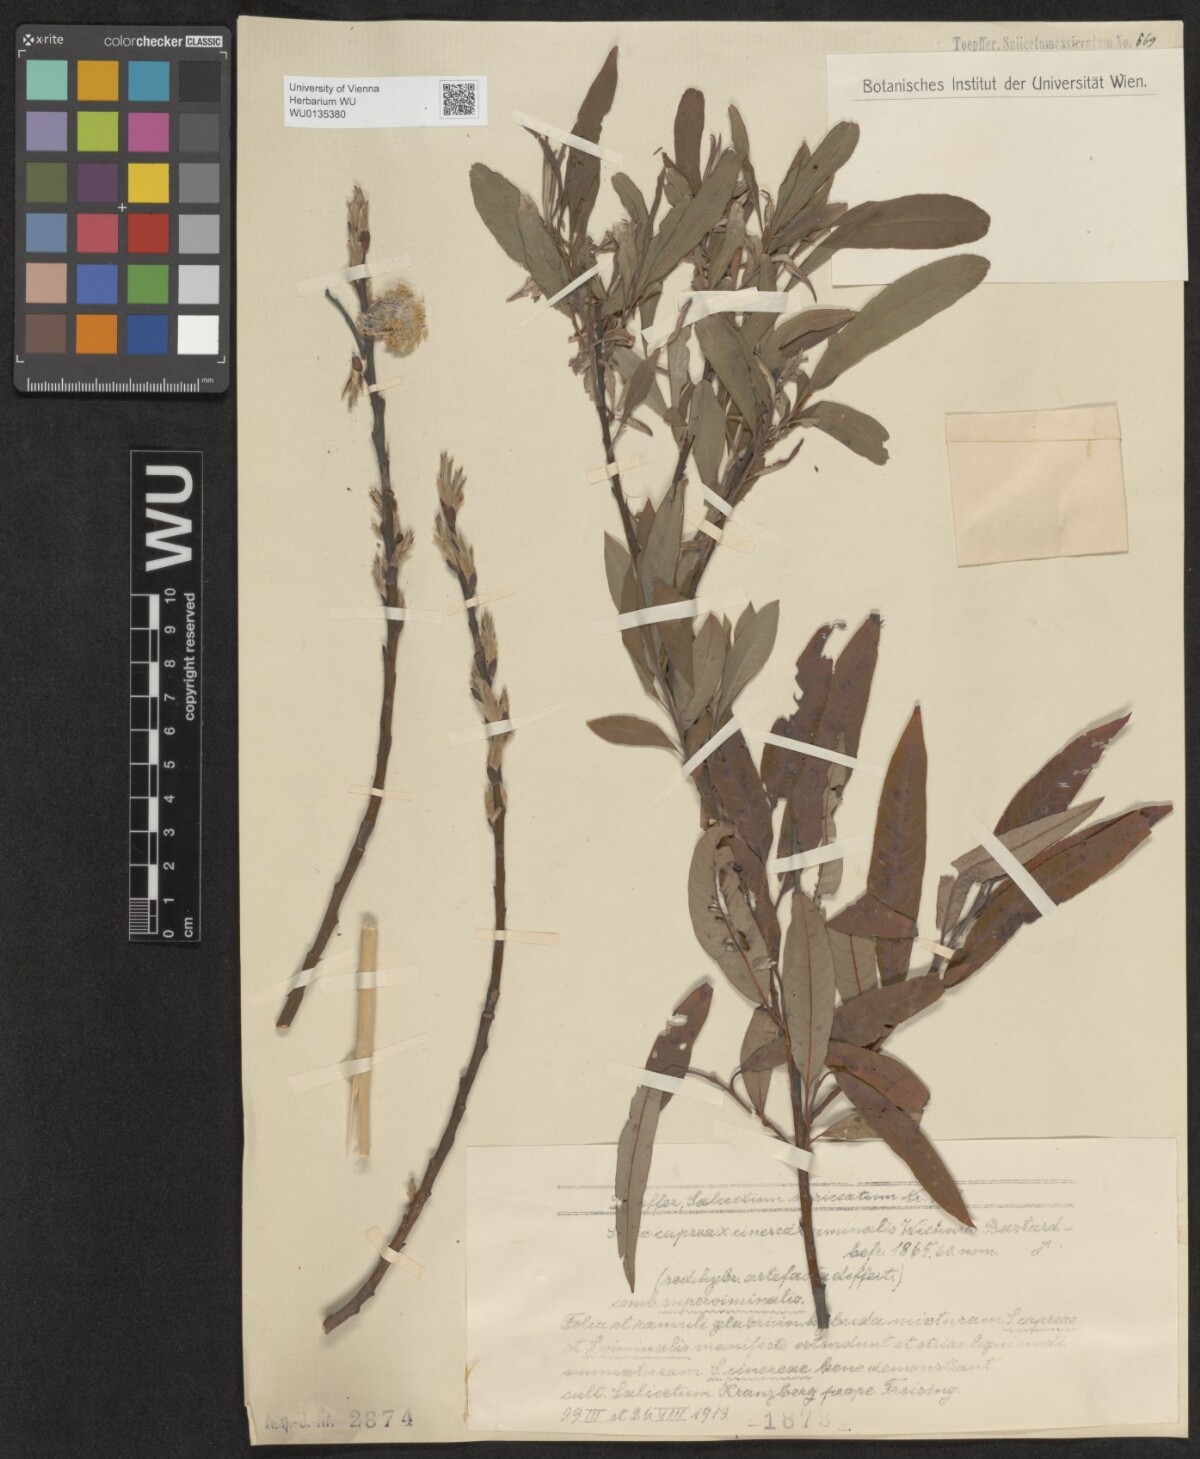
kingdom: Plantae
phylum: Tracheophyta
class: Magnoliopsida
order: Malpighiales
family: Salicaceae
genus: Salix
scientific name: Salix
